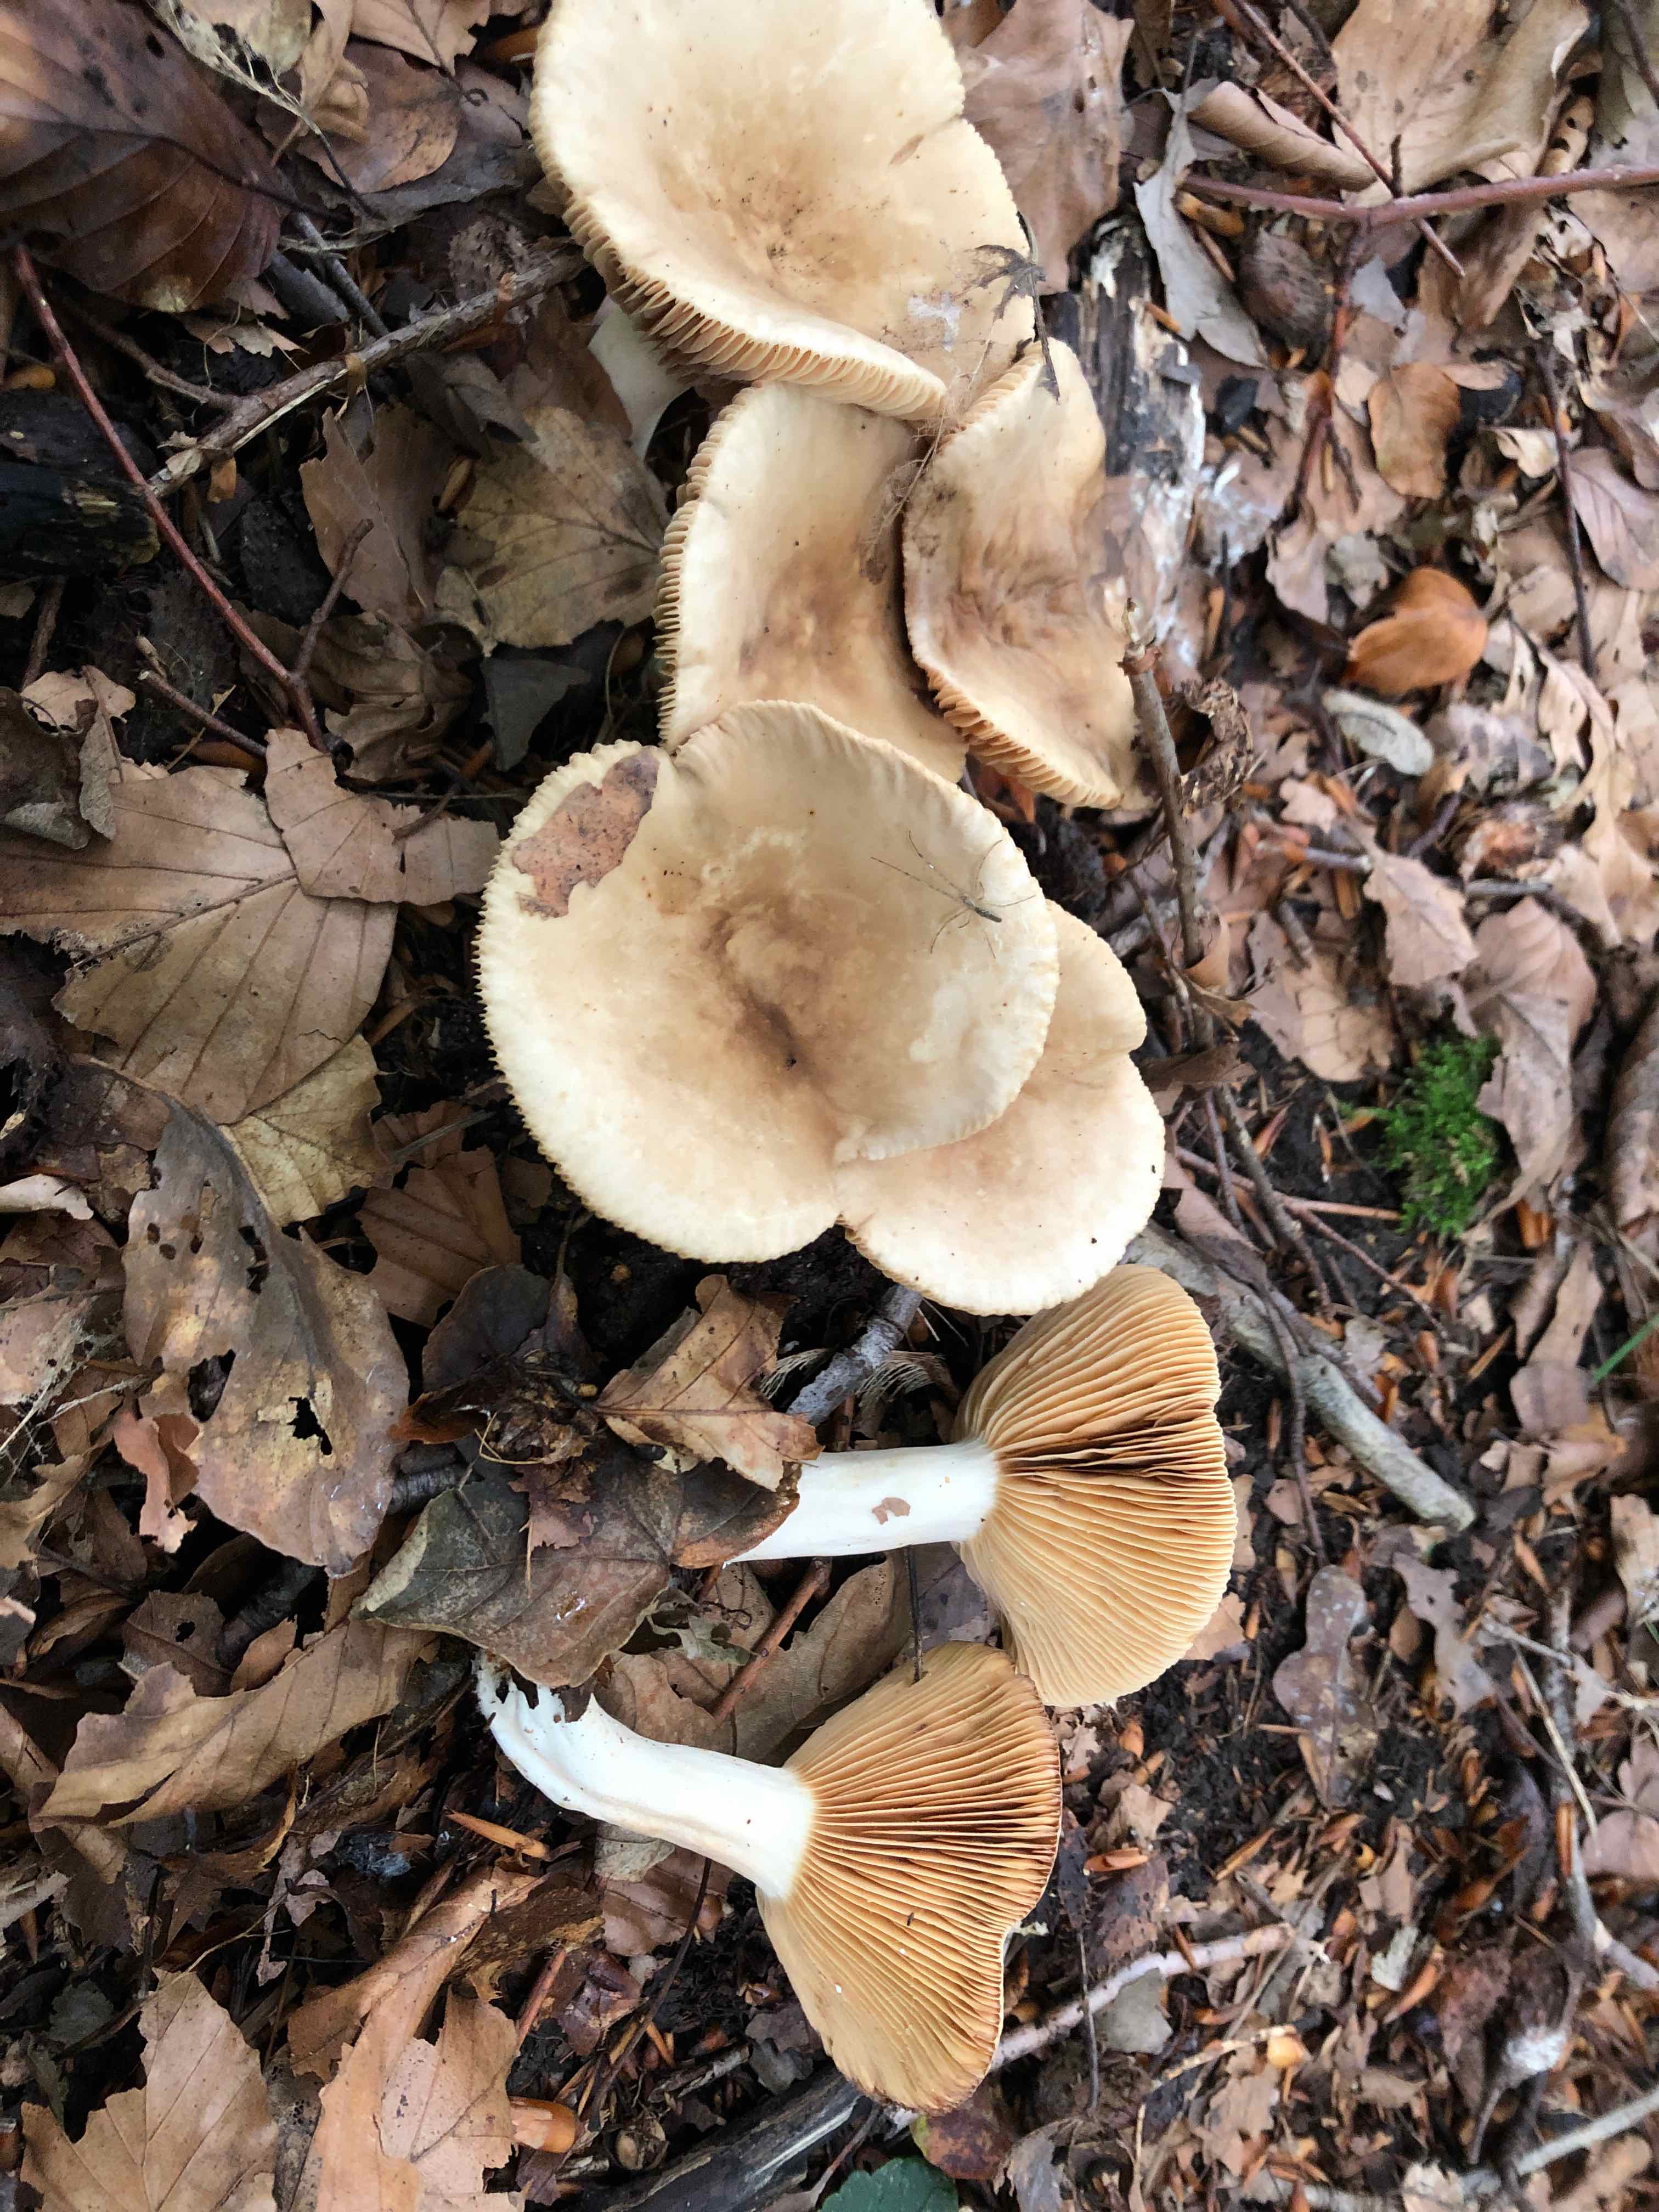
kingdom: Fungi
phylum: Basidiomycota
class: Agaricomycetes
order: Russulales
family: Russulaceae
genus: Lactarius
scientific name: Lactarius ruginosus
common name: gråbrun mælkehat
